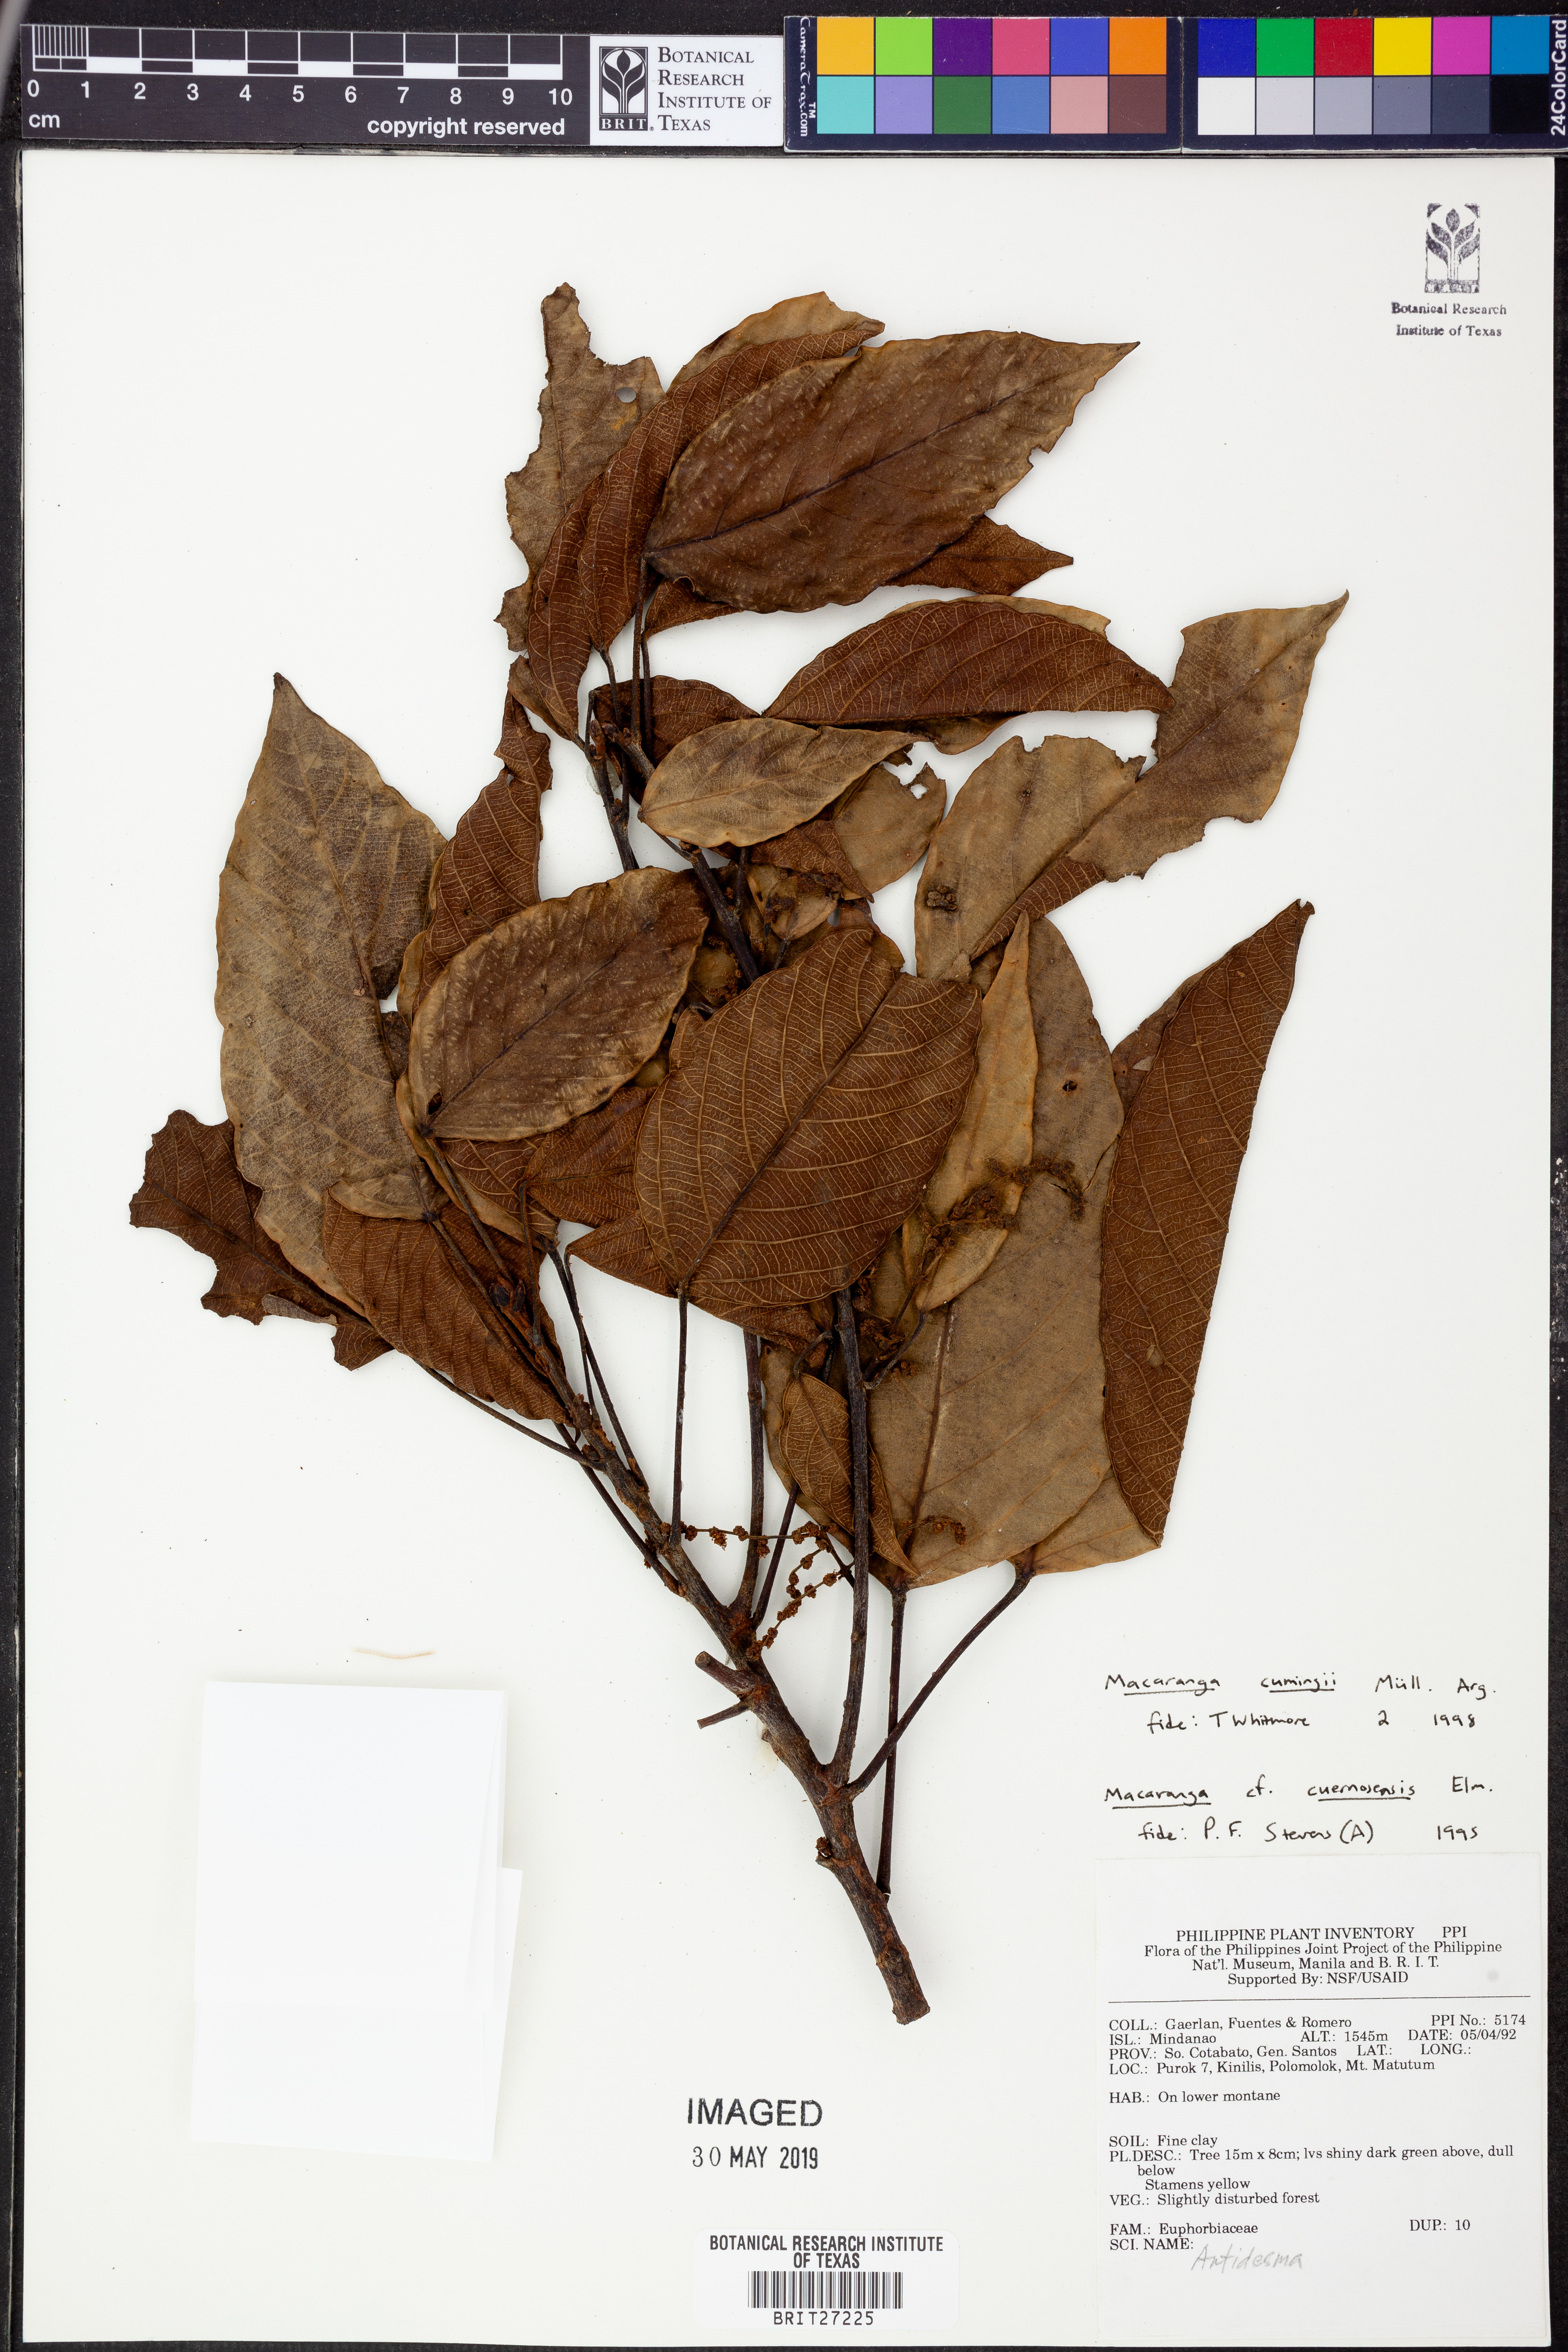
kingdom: Plantae
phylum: Tracheophyta
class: Magnoliopsida
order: Malpighiales
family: Euphorbiaceae
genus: Macaranga
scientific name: Macaranga cumingii
